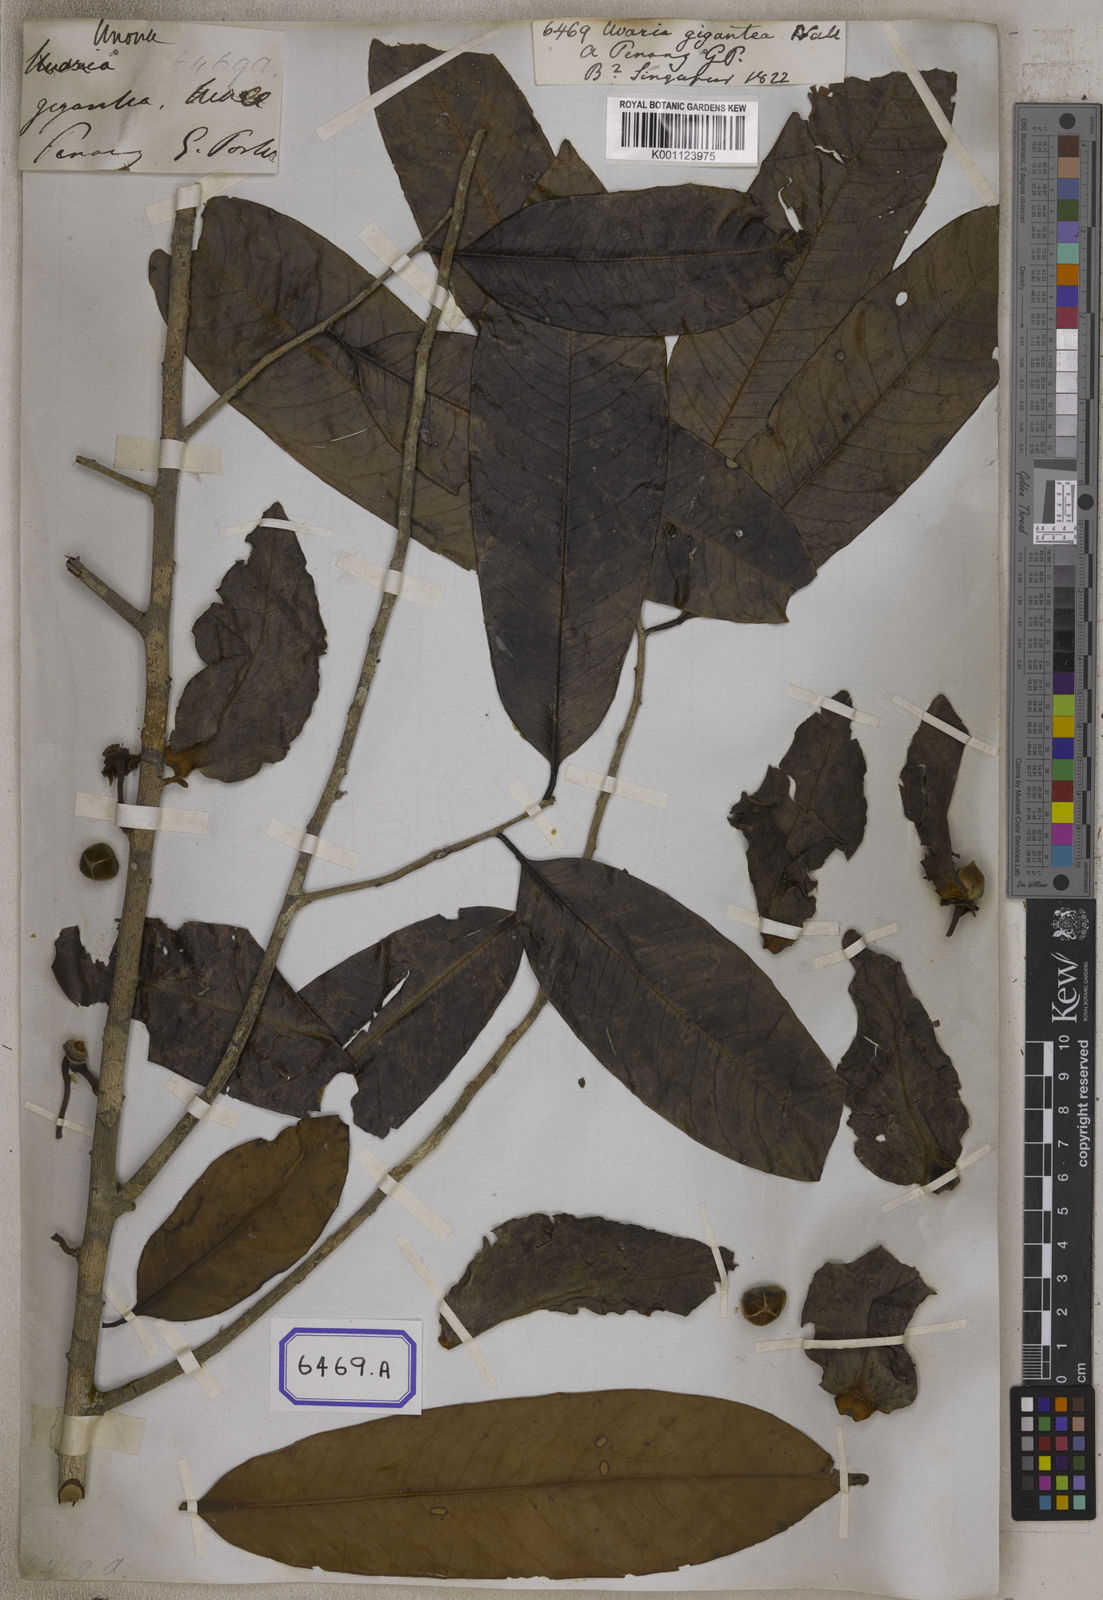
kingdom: Plantae
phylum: Tracheophyta
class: Magnoliopsida
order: Magnoliales
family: Annonaceae
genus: Goniothalamus
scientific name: Goniothalamus giganteus
